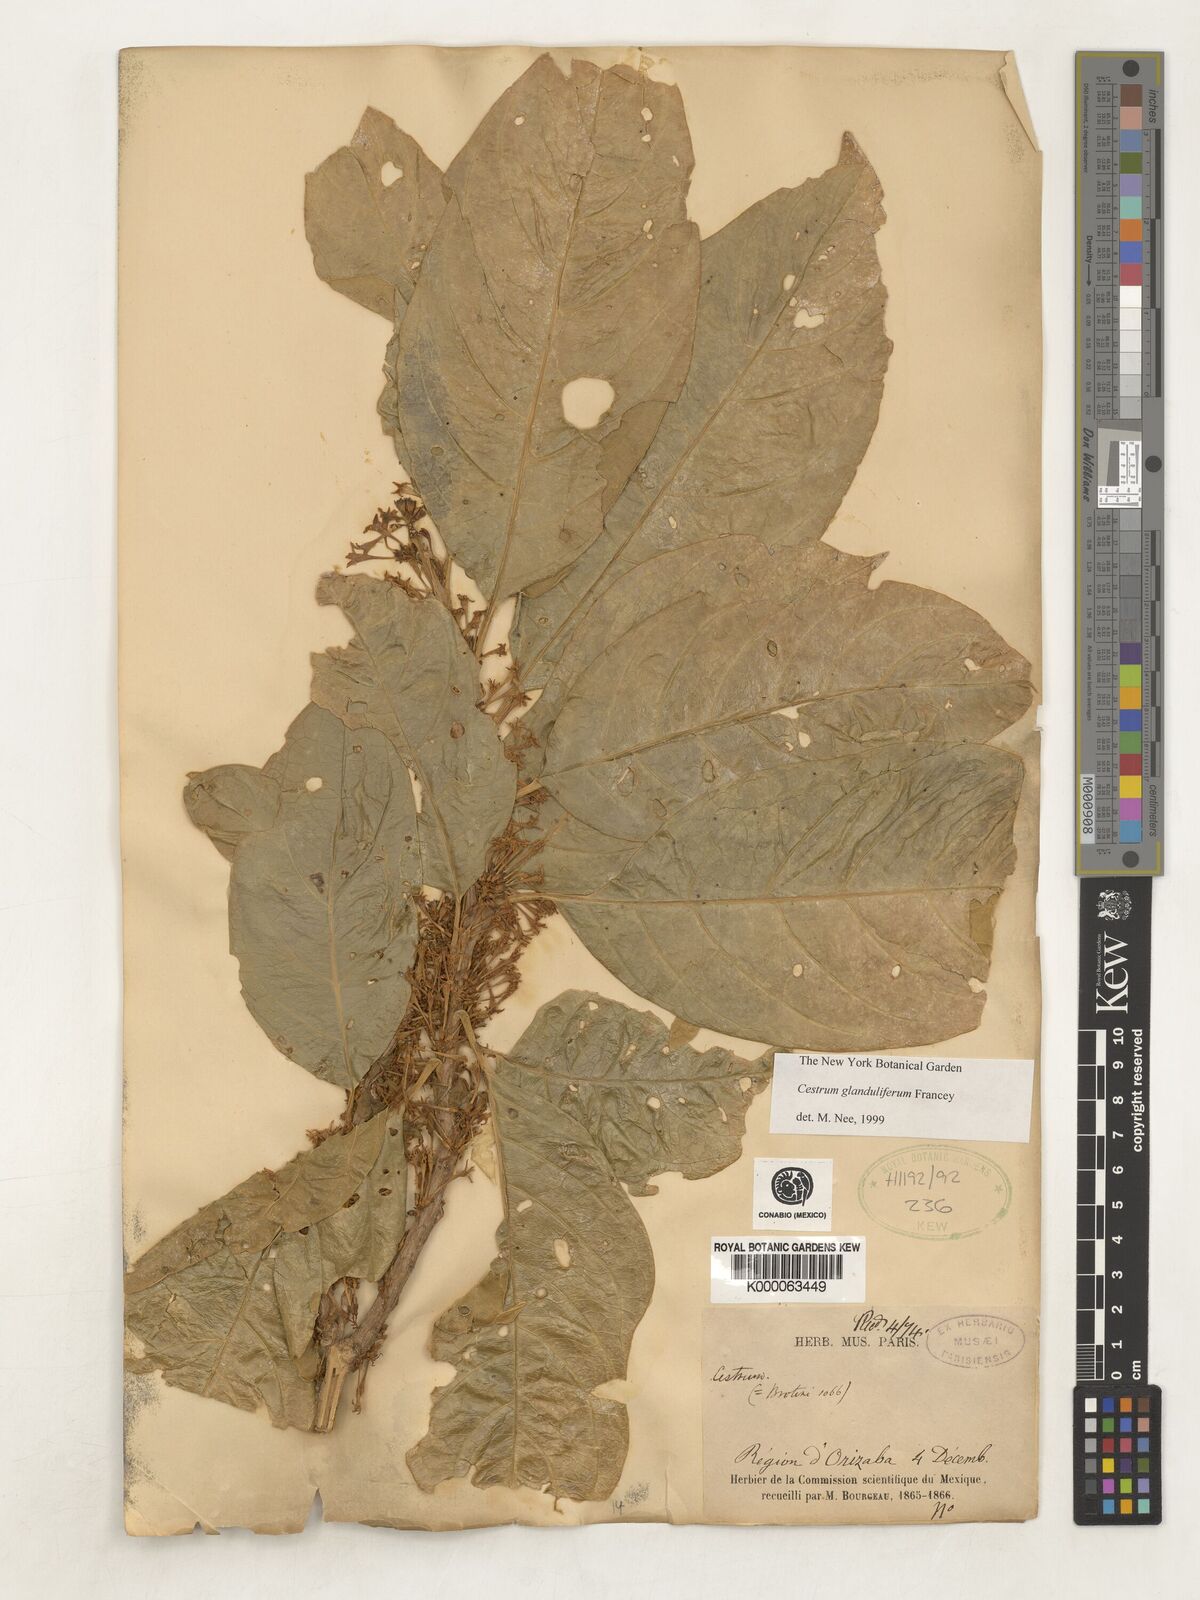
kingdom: Plantae
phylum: Tracheophyta
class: Magnoliopsida
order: Solanales
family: Solanaceae
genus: Cestrum
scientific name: Cestrum glanduliferum
